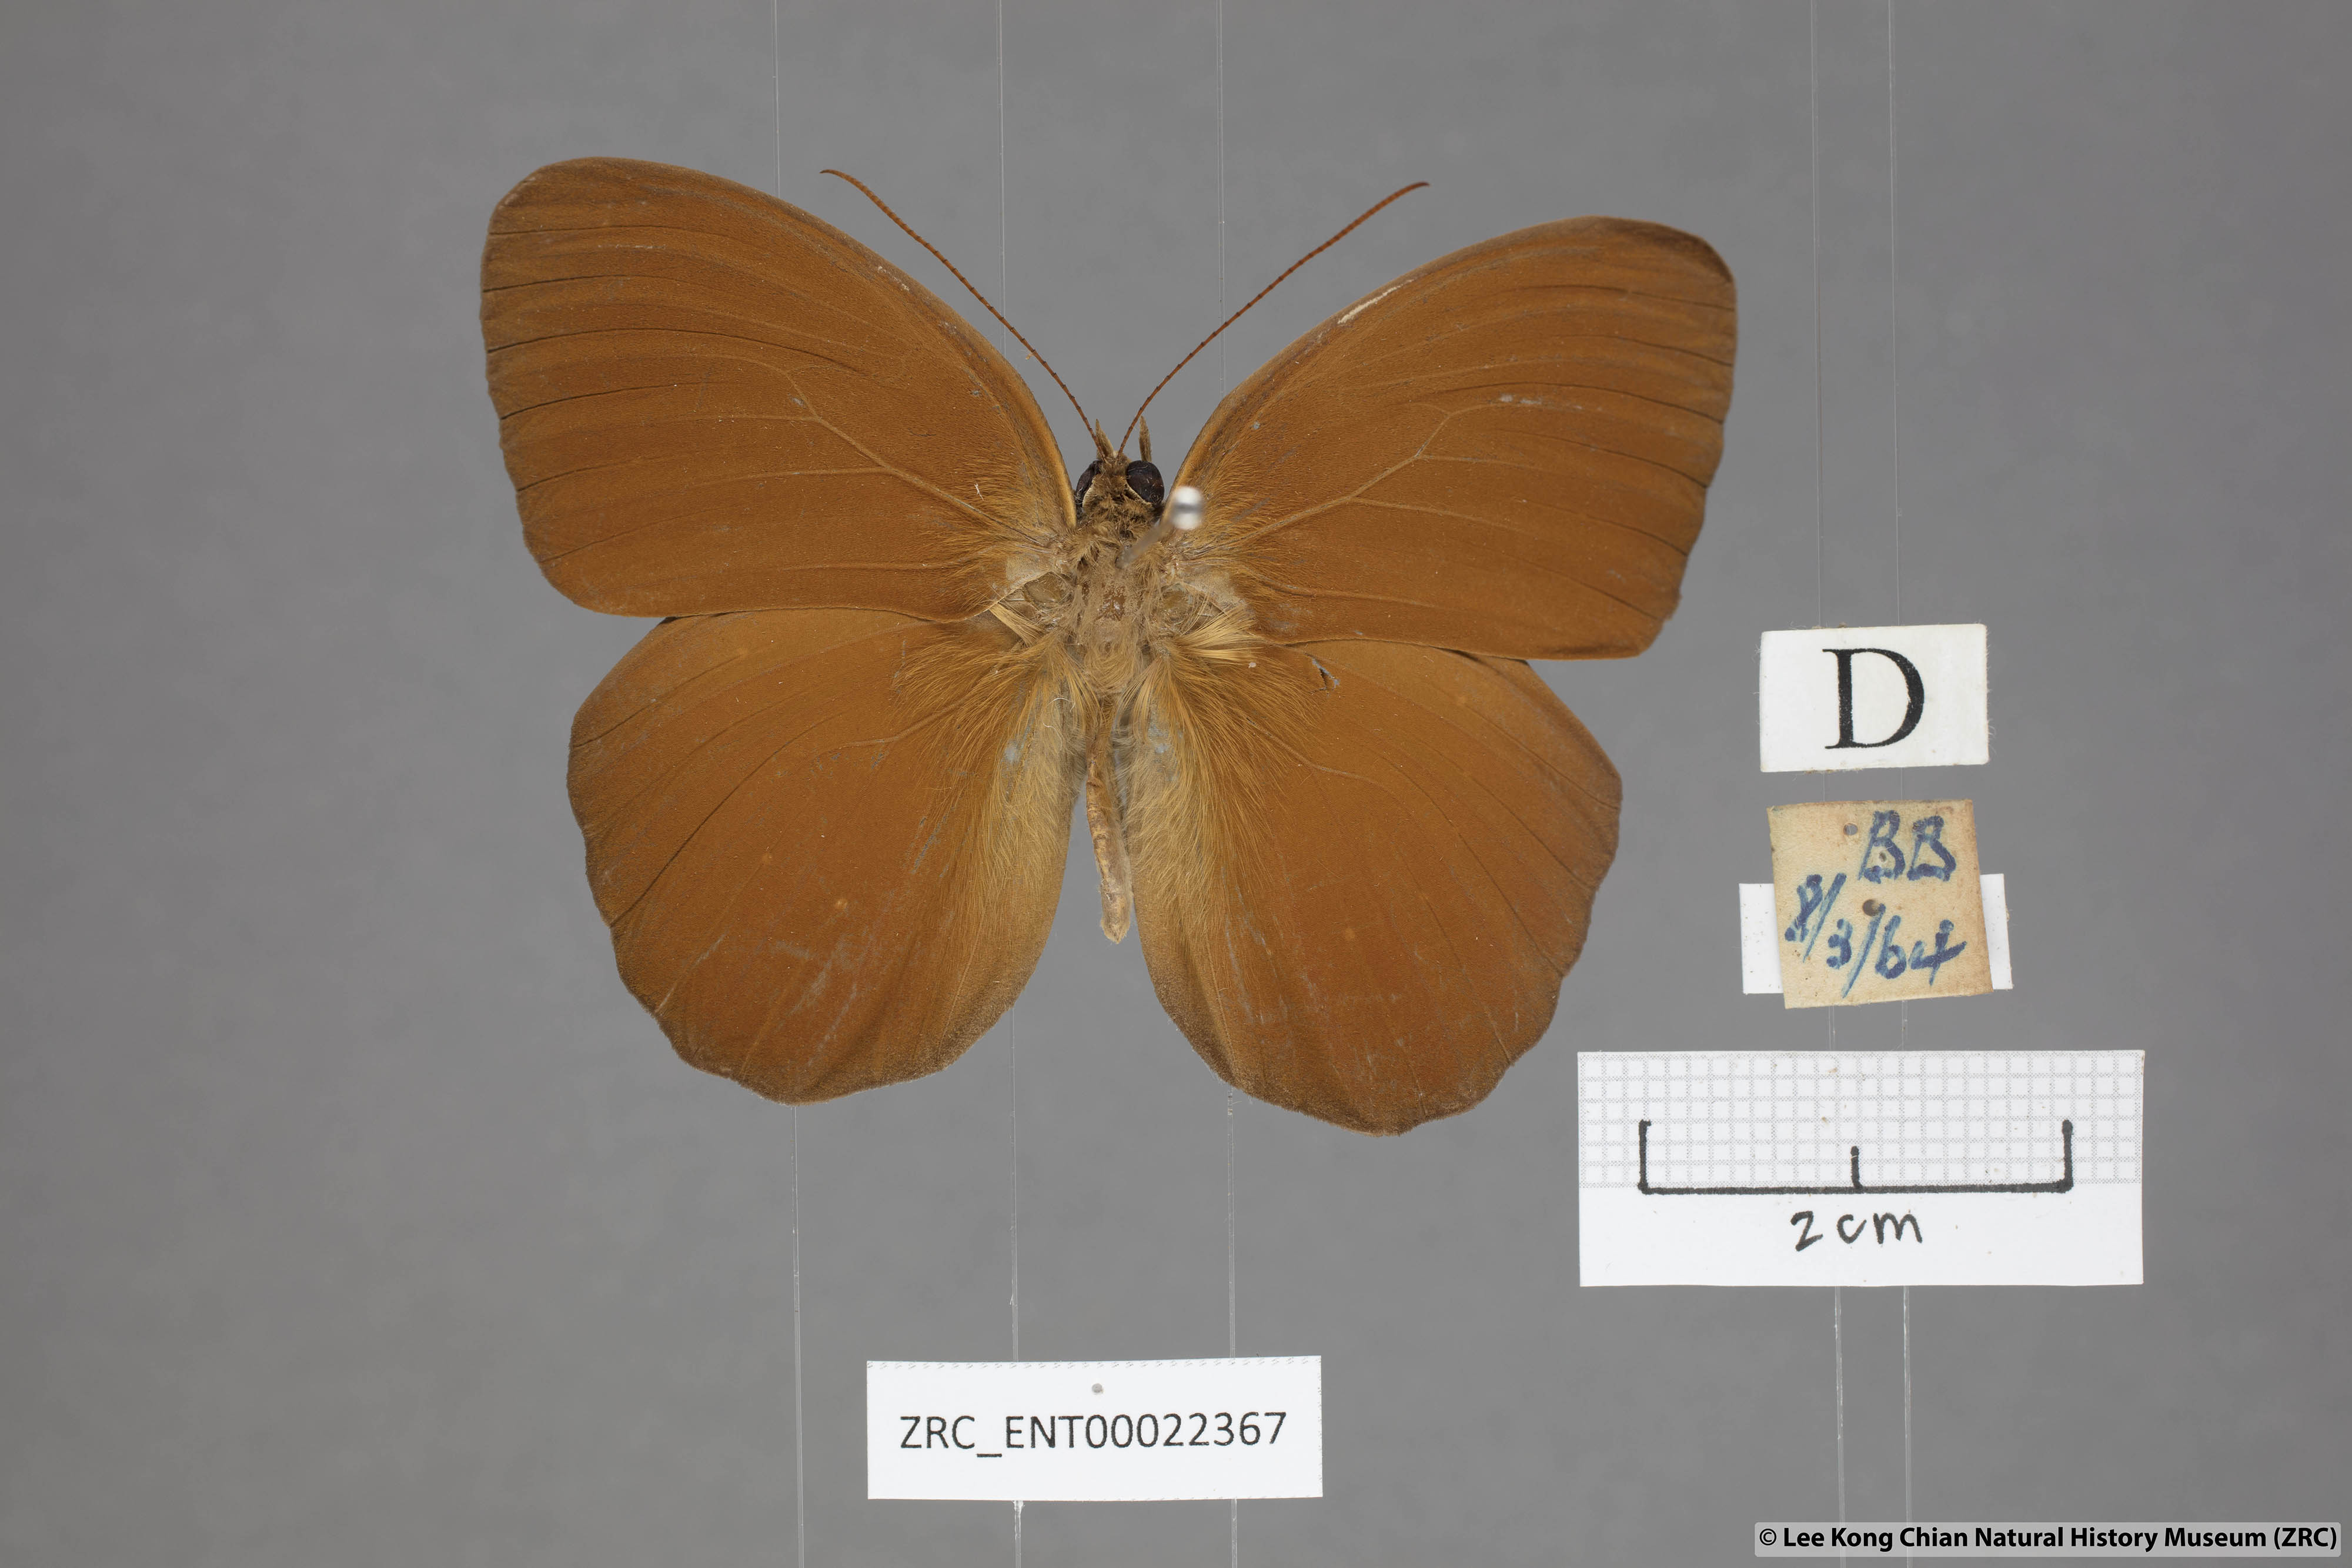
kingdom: Animalia
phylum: Arthropoda
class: Insecta
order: Lepidoptera
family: Nymphalidae
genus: Faunis
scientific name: Faunis canens
